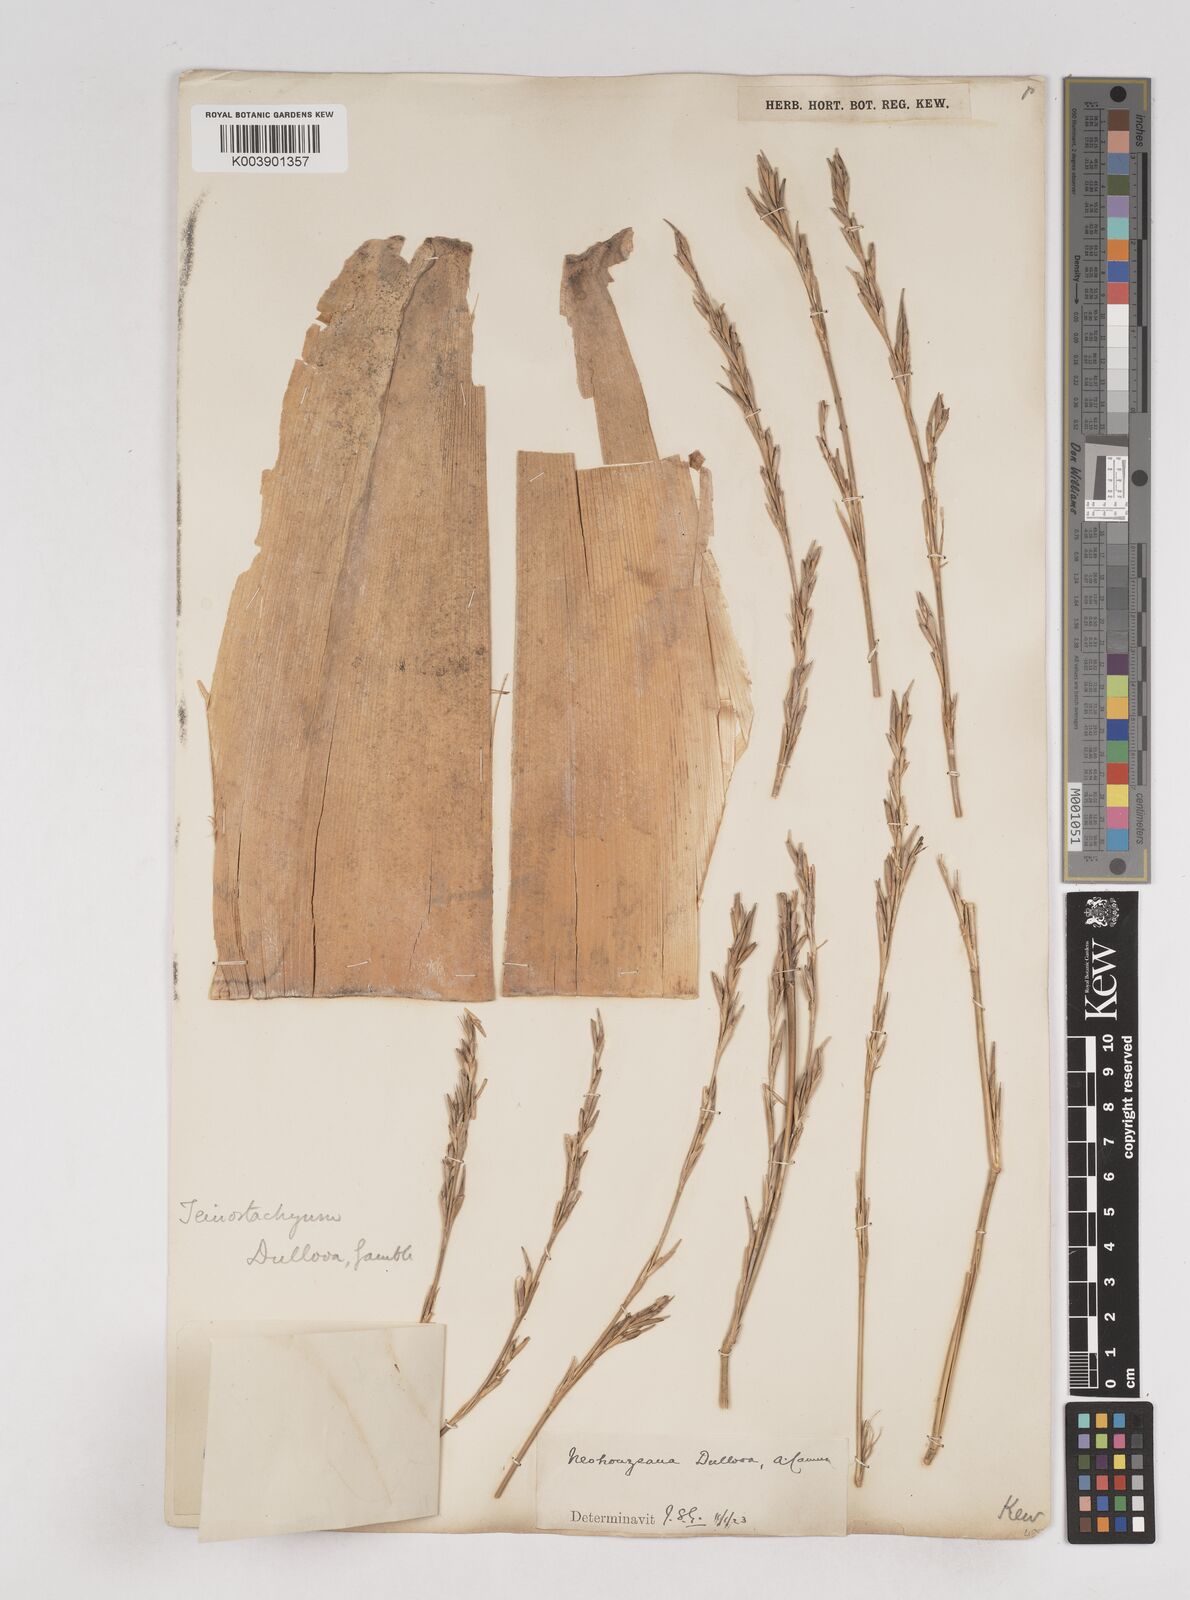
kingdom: Plantae
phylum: Tracheophyta
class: Liliopsida
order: Poales
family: Poaceae
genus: Schizostachyum
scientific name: Schizostachyum dullooa
